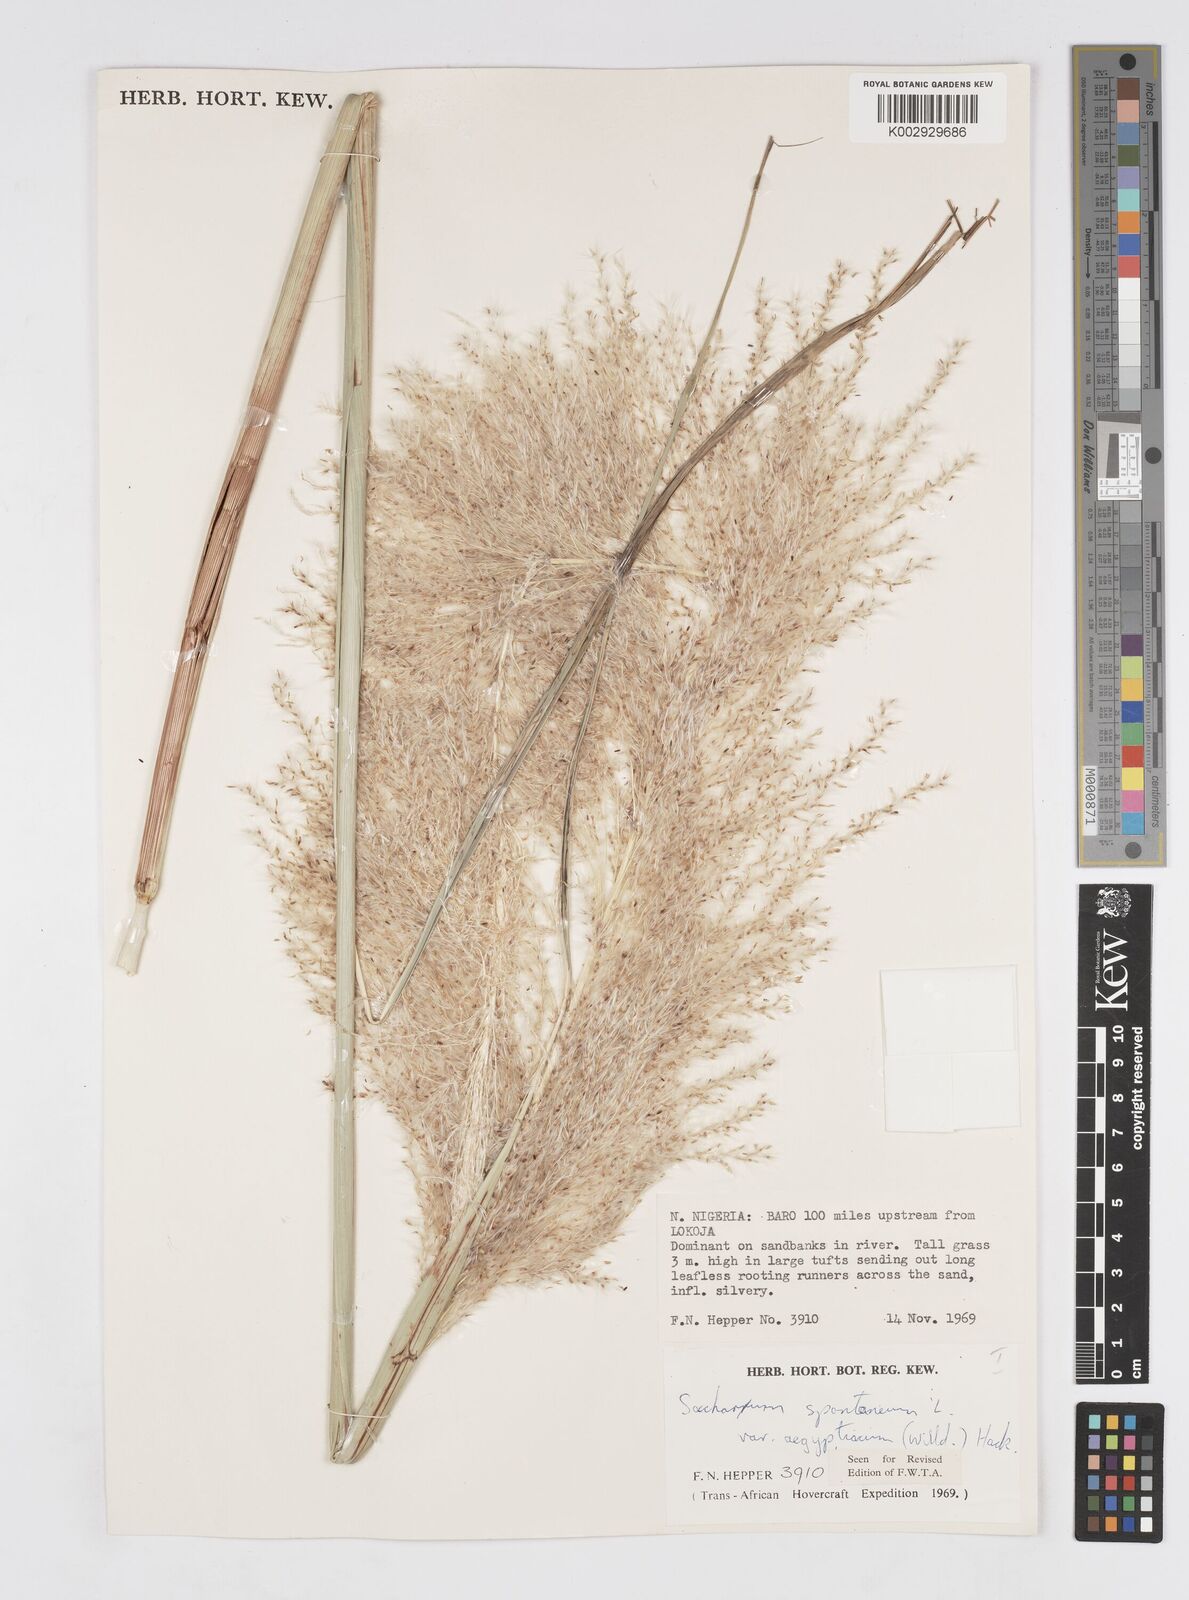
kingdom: Plantae
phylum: Tracheophyta
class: Liliopsida
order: Poales
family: Poaceae
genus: Saccharum
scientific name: Saccharum spontaneum
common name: Wild sugarcane
